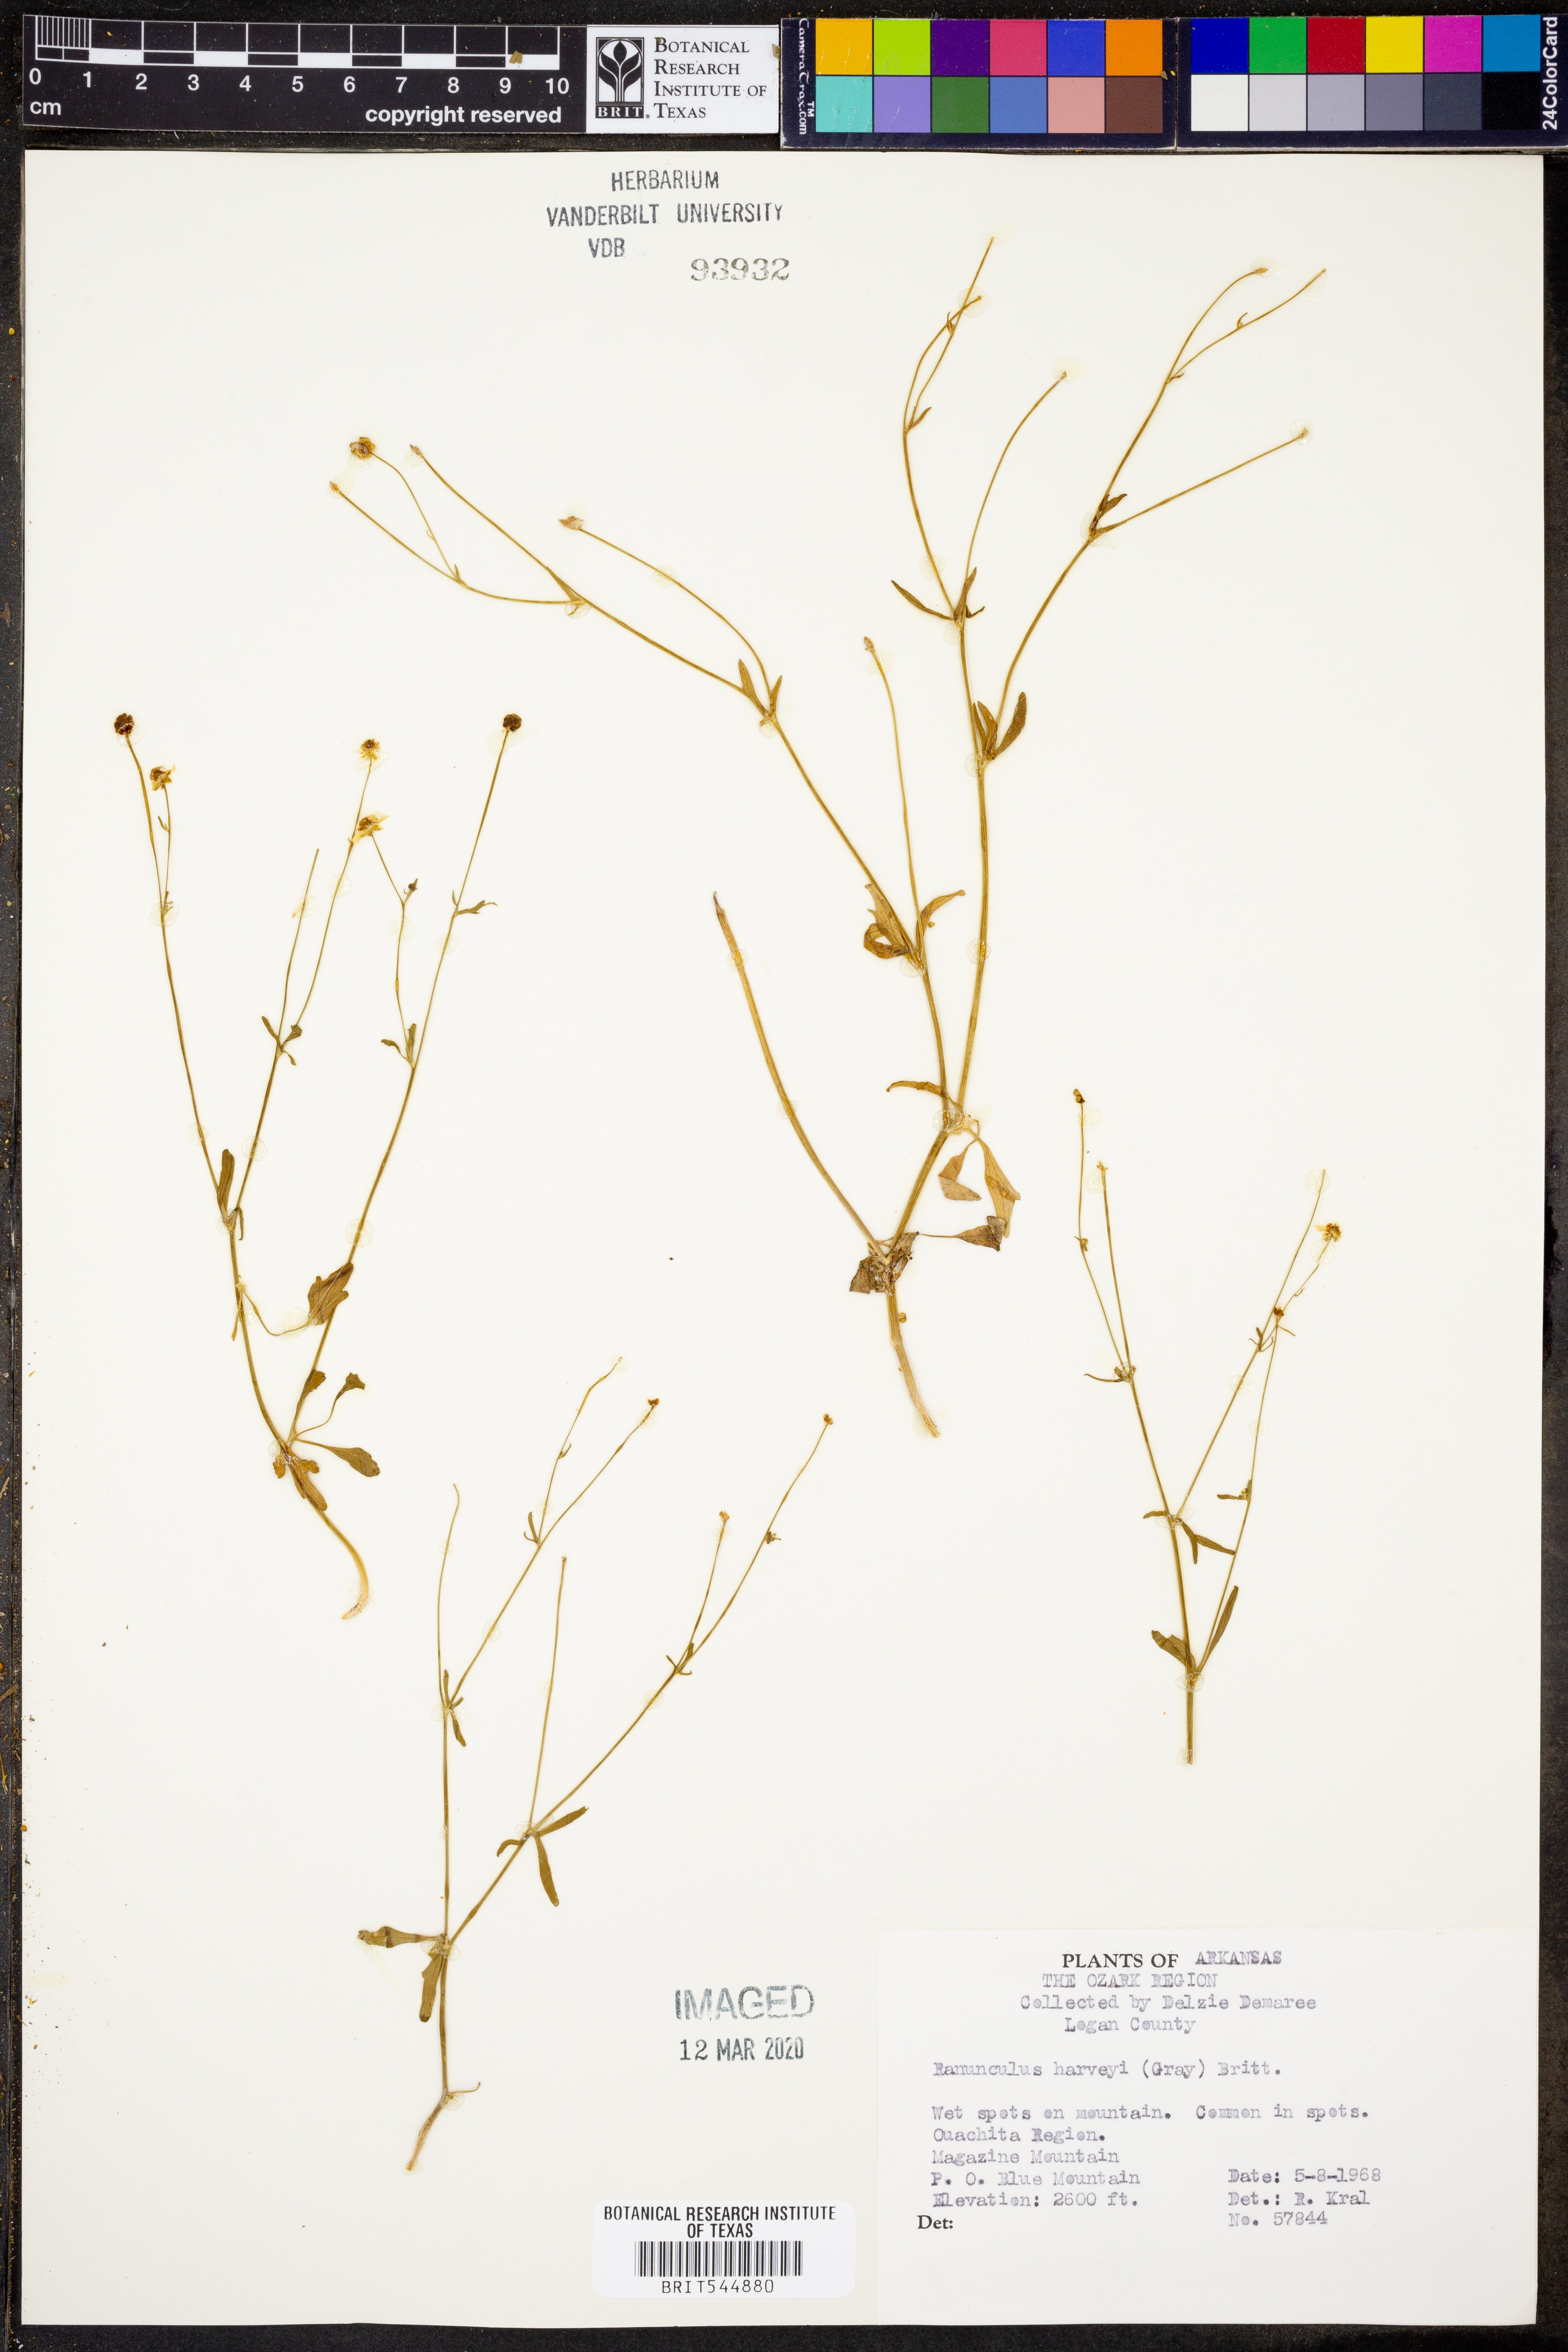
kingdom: Plantae
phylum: Tracheophyta
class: Magnoliopsida
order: Ranunculales
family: Ranunculaceae
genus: Ranunculus
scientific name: Ranunculus harveyi
